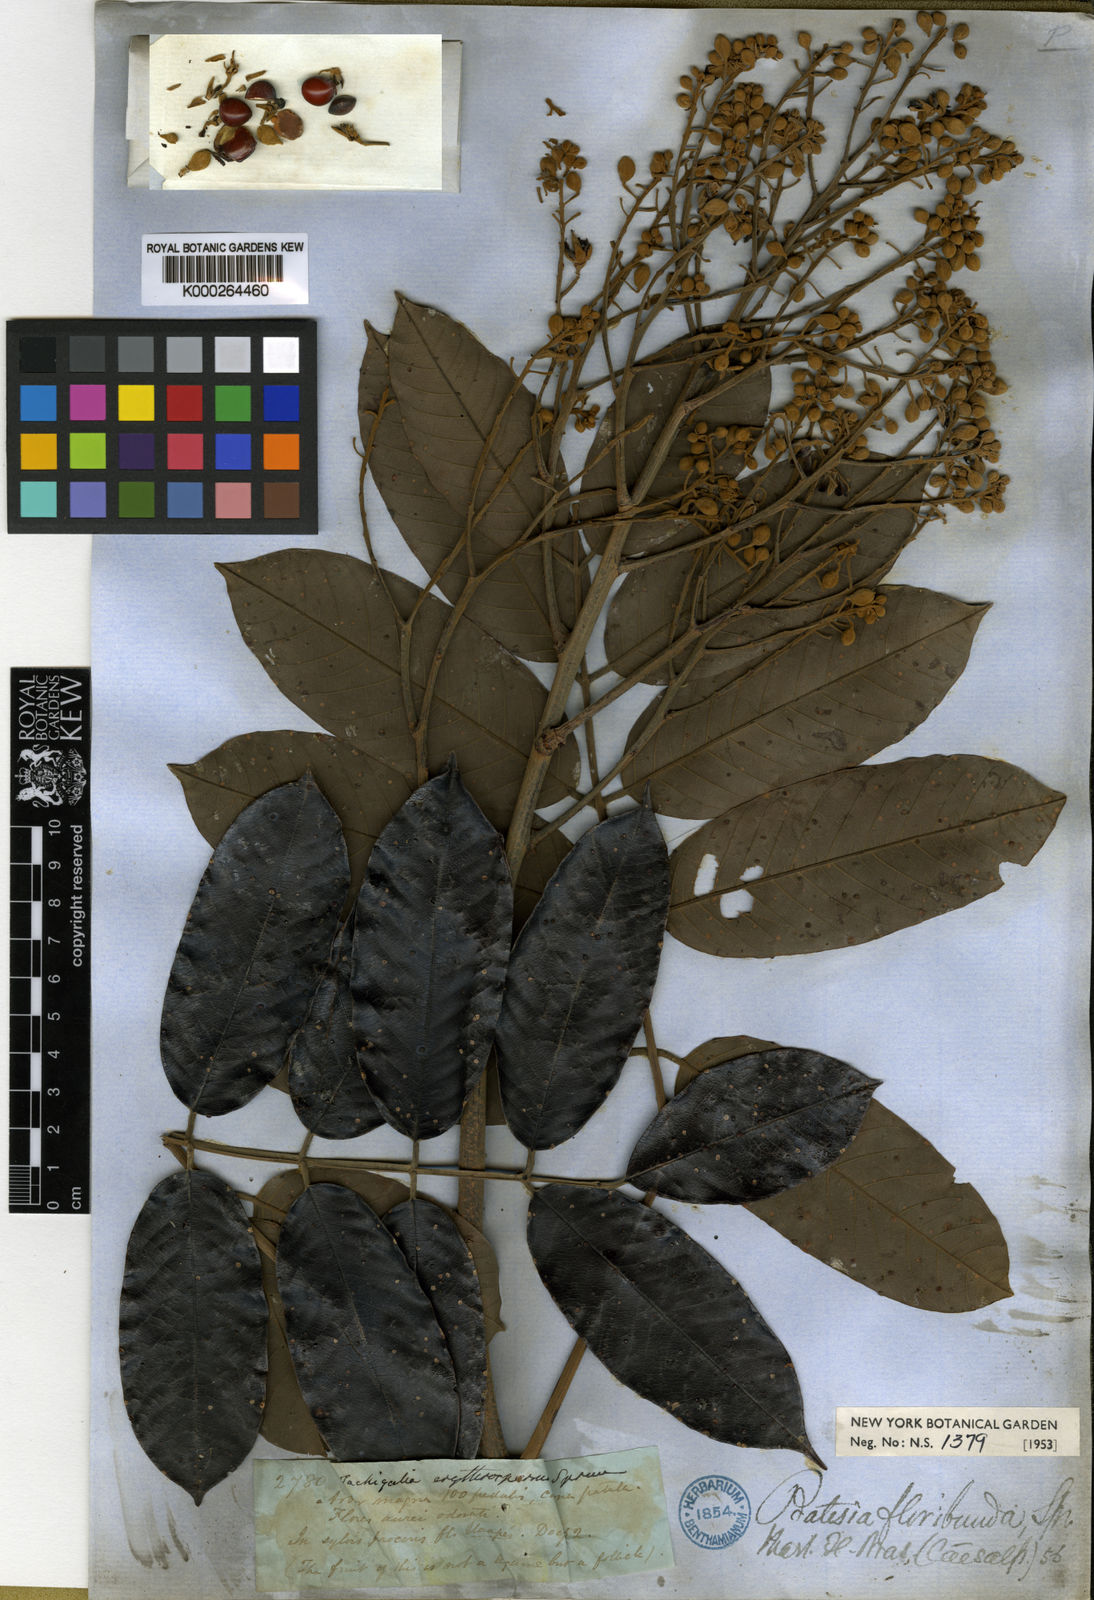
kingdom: Plantae
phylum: Tracheophyta
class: Magnoliopsida
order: Fabales
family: Fabaceae
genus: Batesia
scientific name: Batesia floribunda
